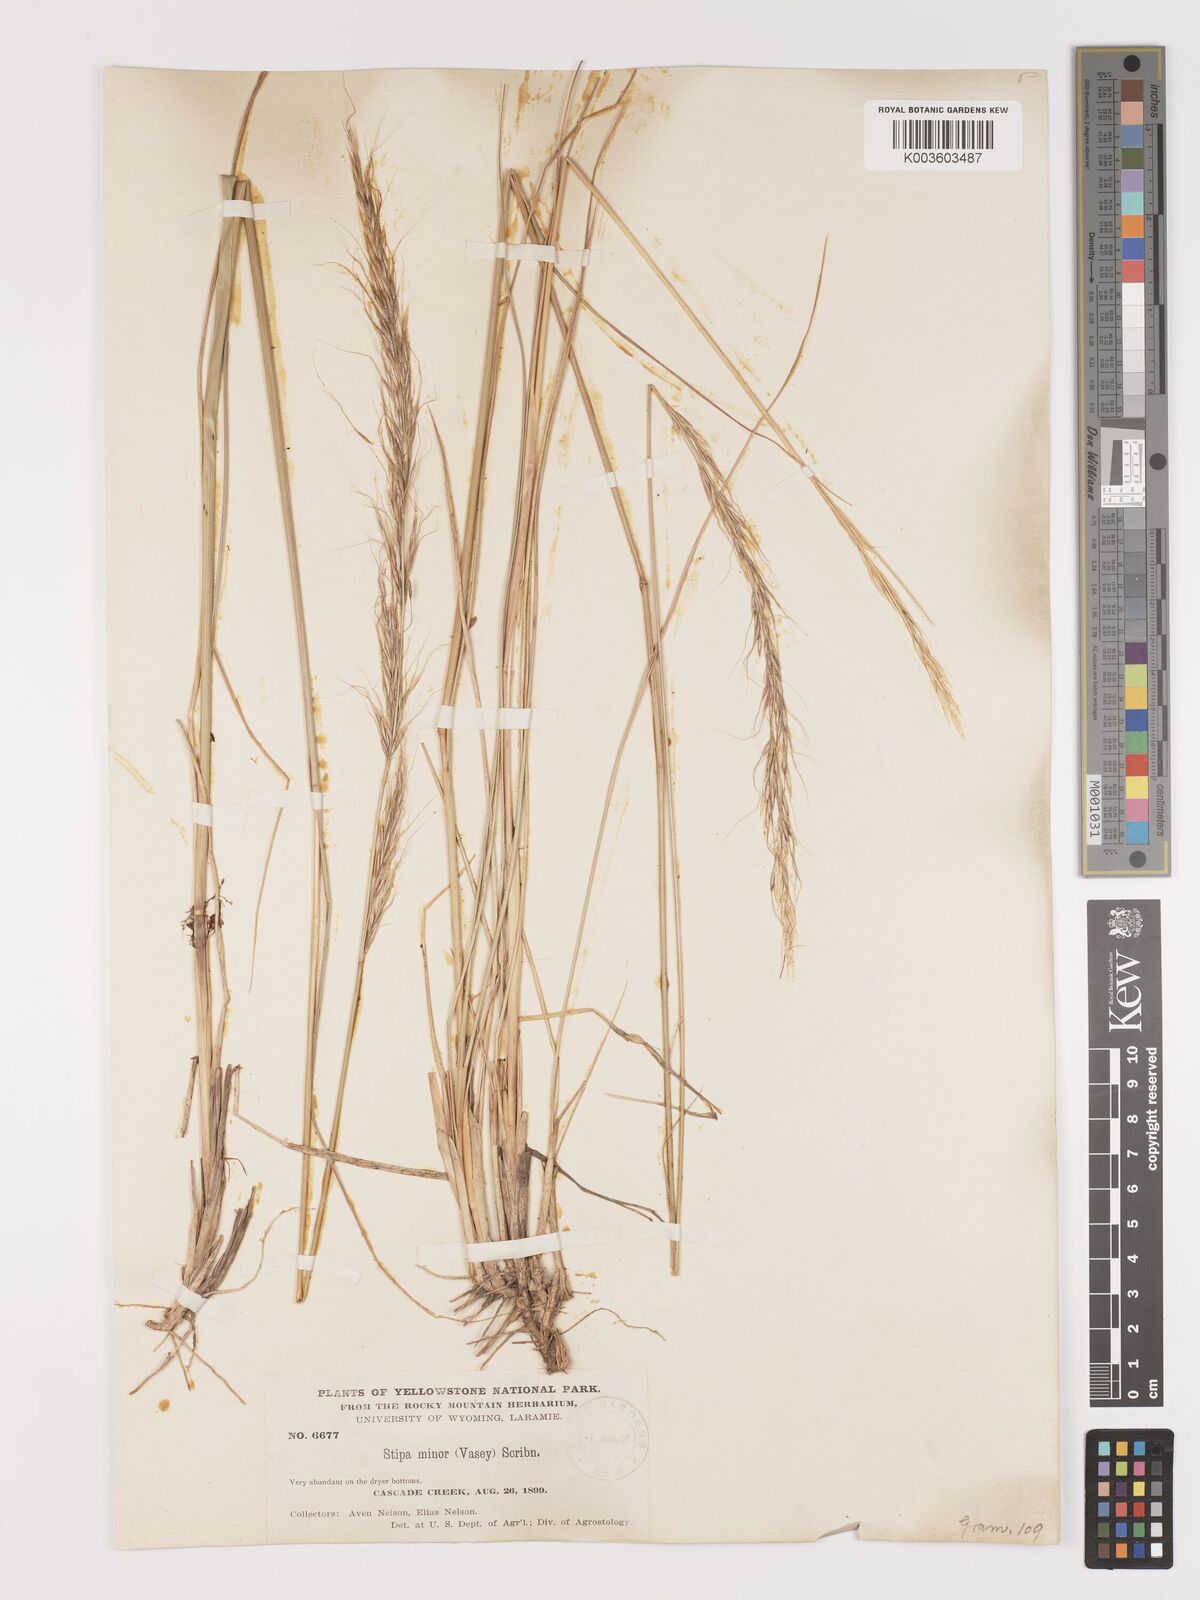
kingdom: Plantae
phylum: Tracheophyta
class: Liliopsida
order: Poales
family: Poaceae
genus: Eriocoma
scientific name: Eriocoma nelsonii
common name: Nelson's needlegrass
